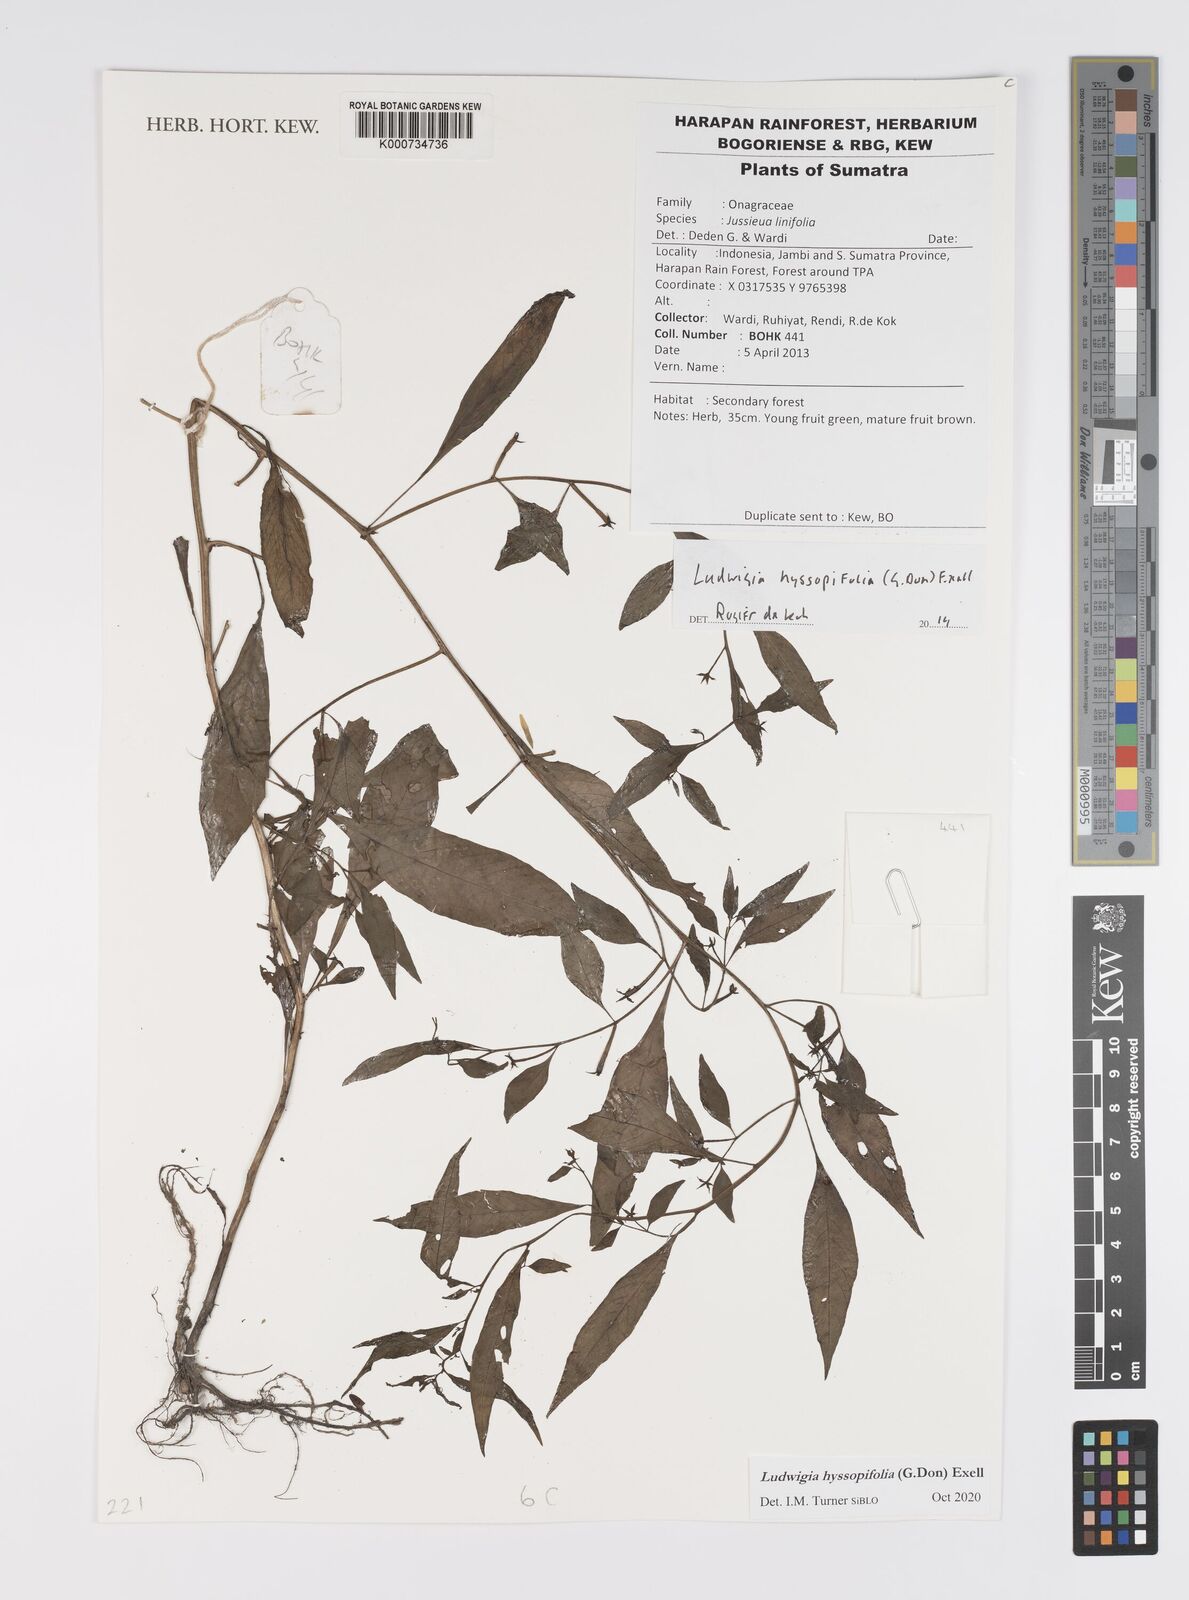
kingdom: Plantae
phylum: Tracheophyta
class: Magnoliopsida
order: Myrtales
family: Onagraceae
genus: Ludwigia
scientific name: Ludwigia hyssopifolia
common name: Linear leaf water primrose
